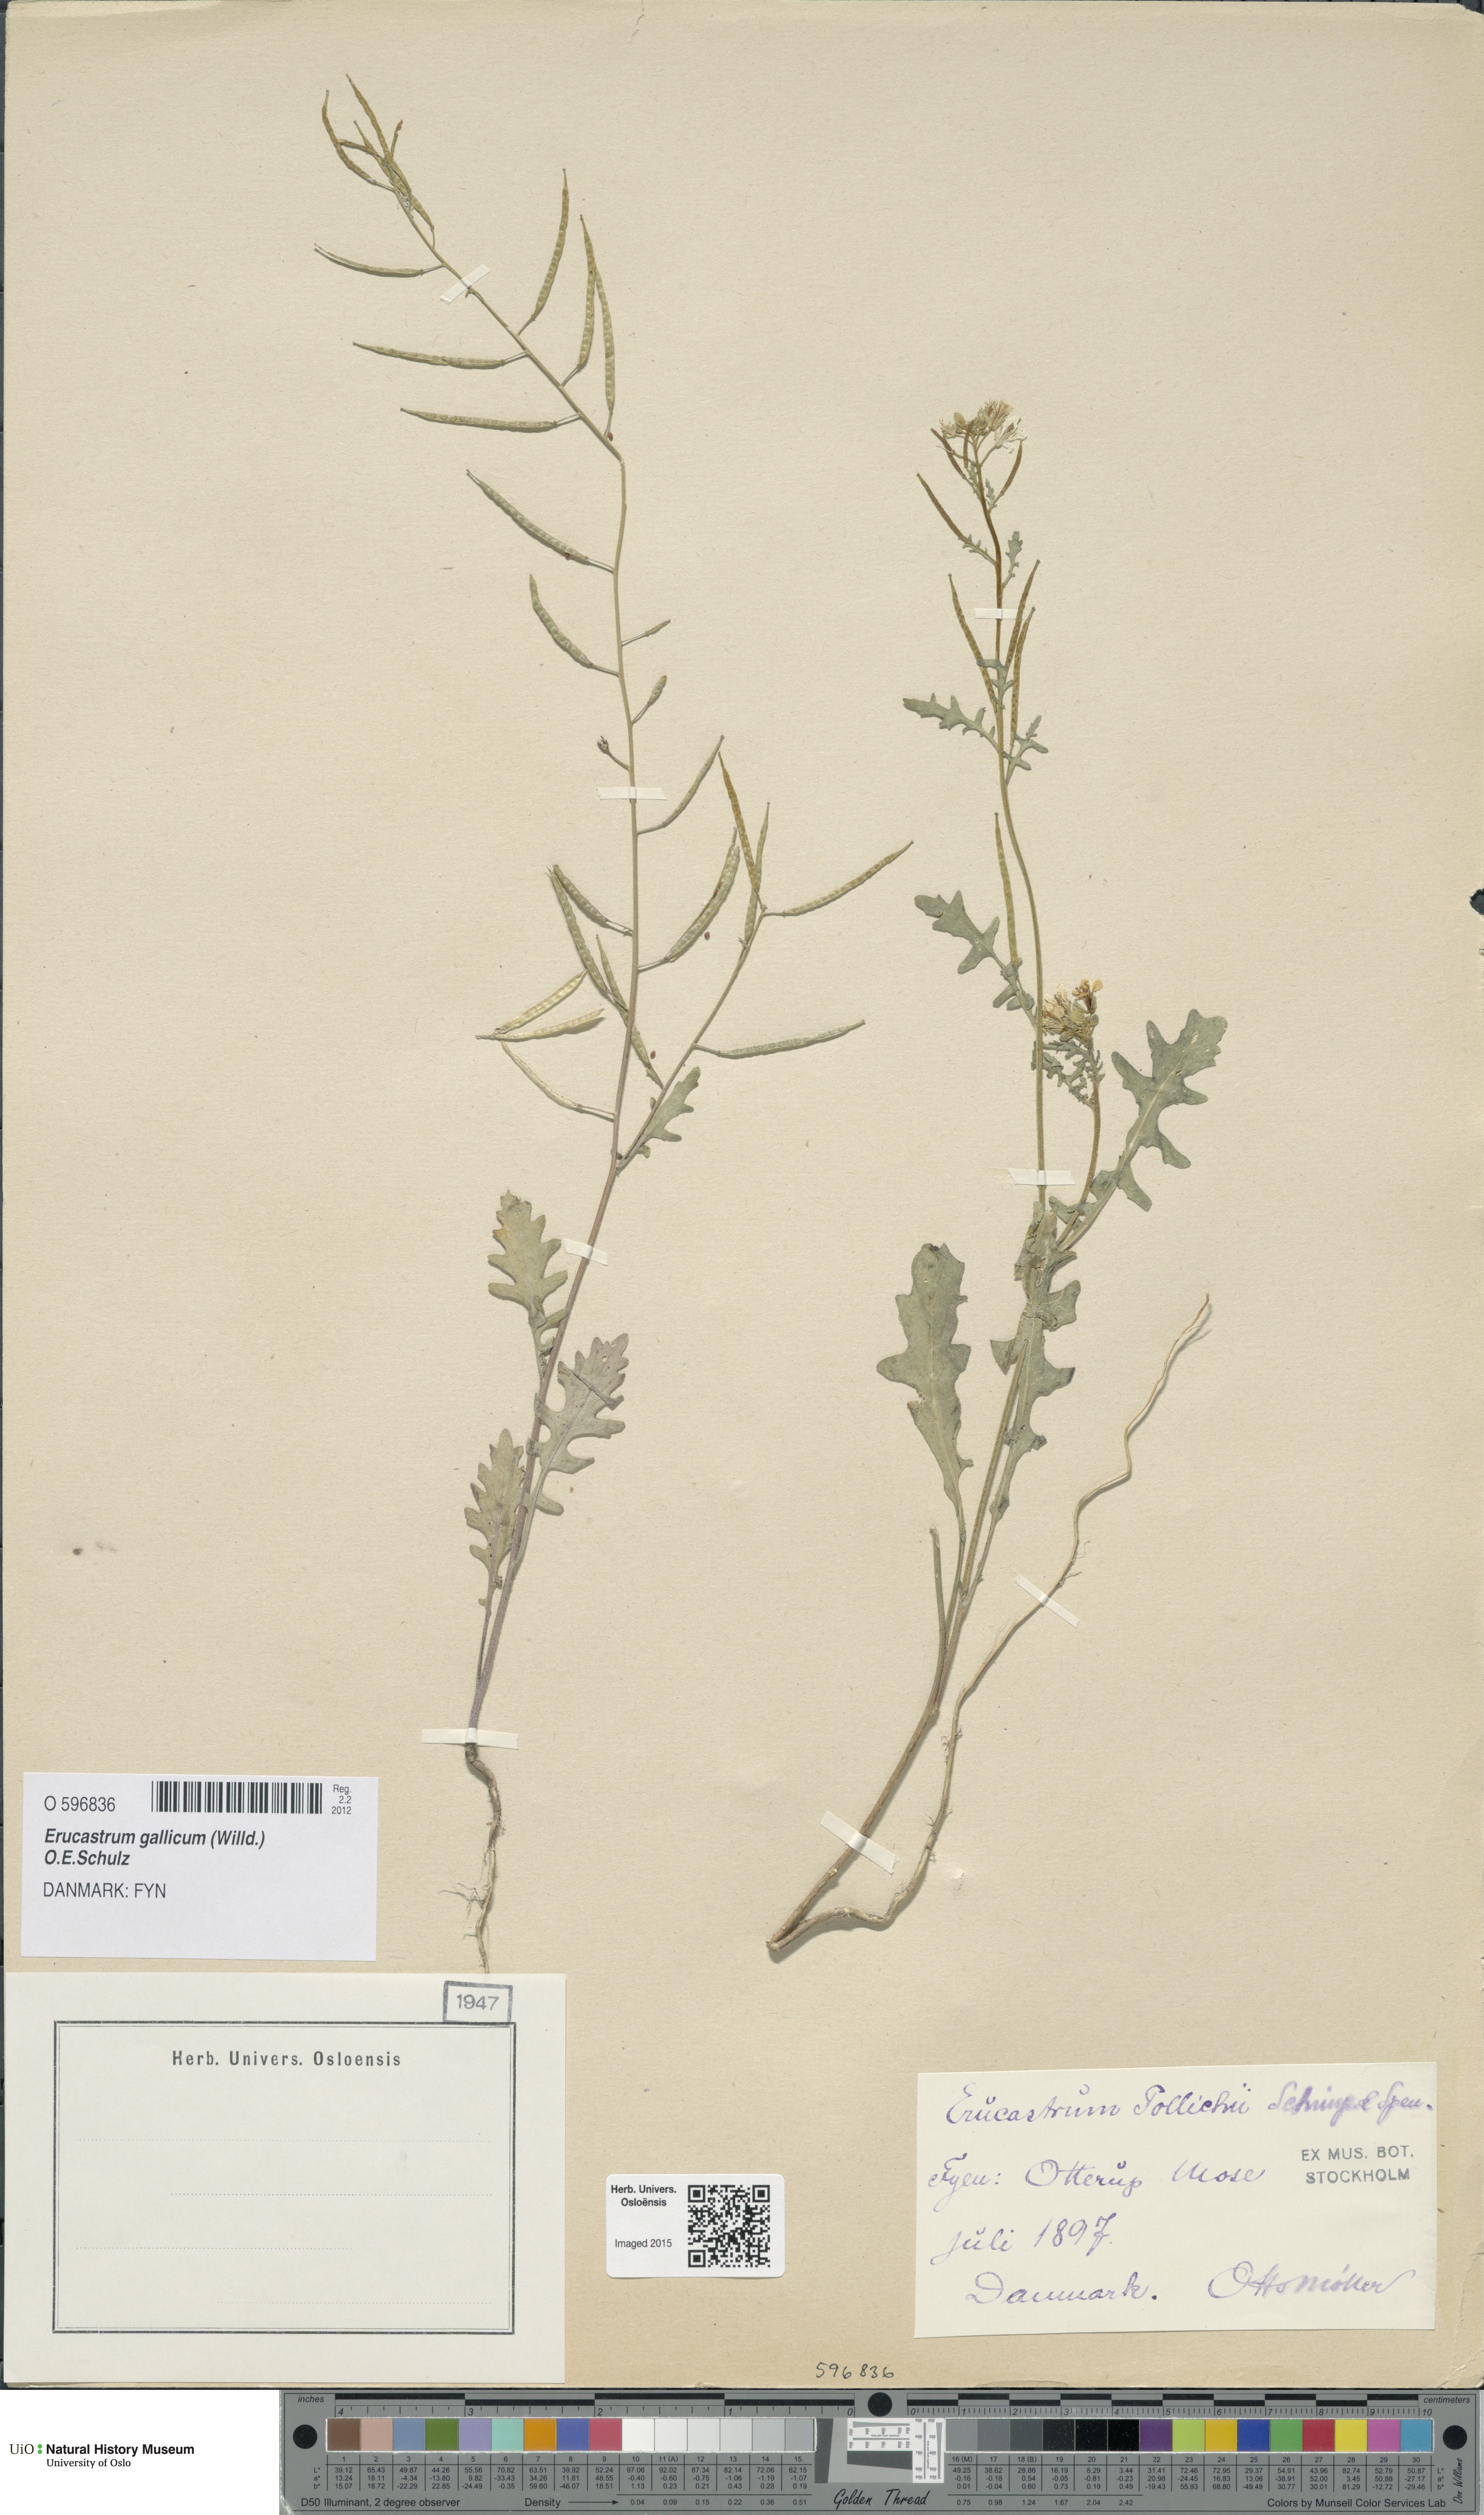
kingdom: Plantae
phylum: Tracheophyta
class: Magnoliopsida
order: Brassicales
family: Brassicaceae
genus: Erucastrum
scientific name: Erucastrum gallicum
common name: Hairy rocket
